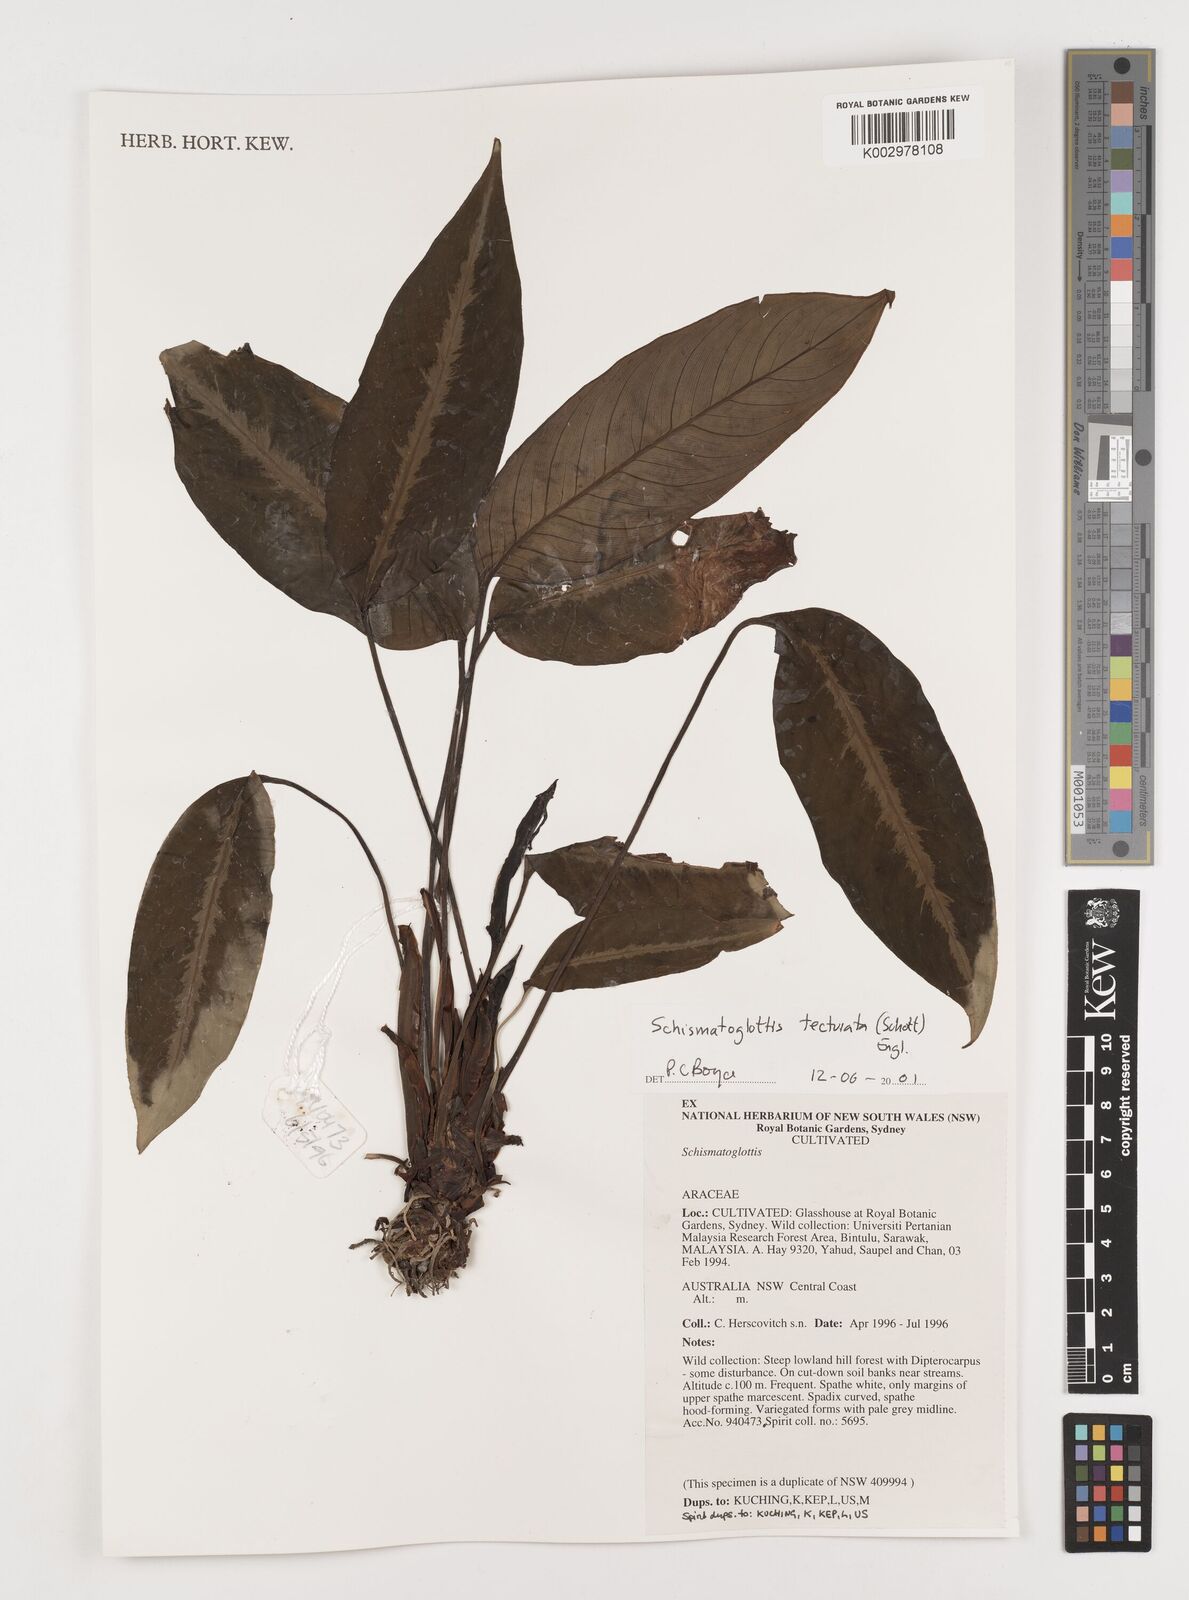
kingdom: Plantae
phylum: Tracheophyta
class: Liliopsida
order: Zingiberales
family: Costaceae
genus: Colobogynium
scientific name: Colobogynium variegatum
